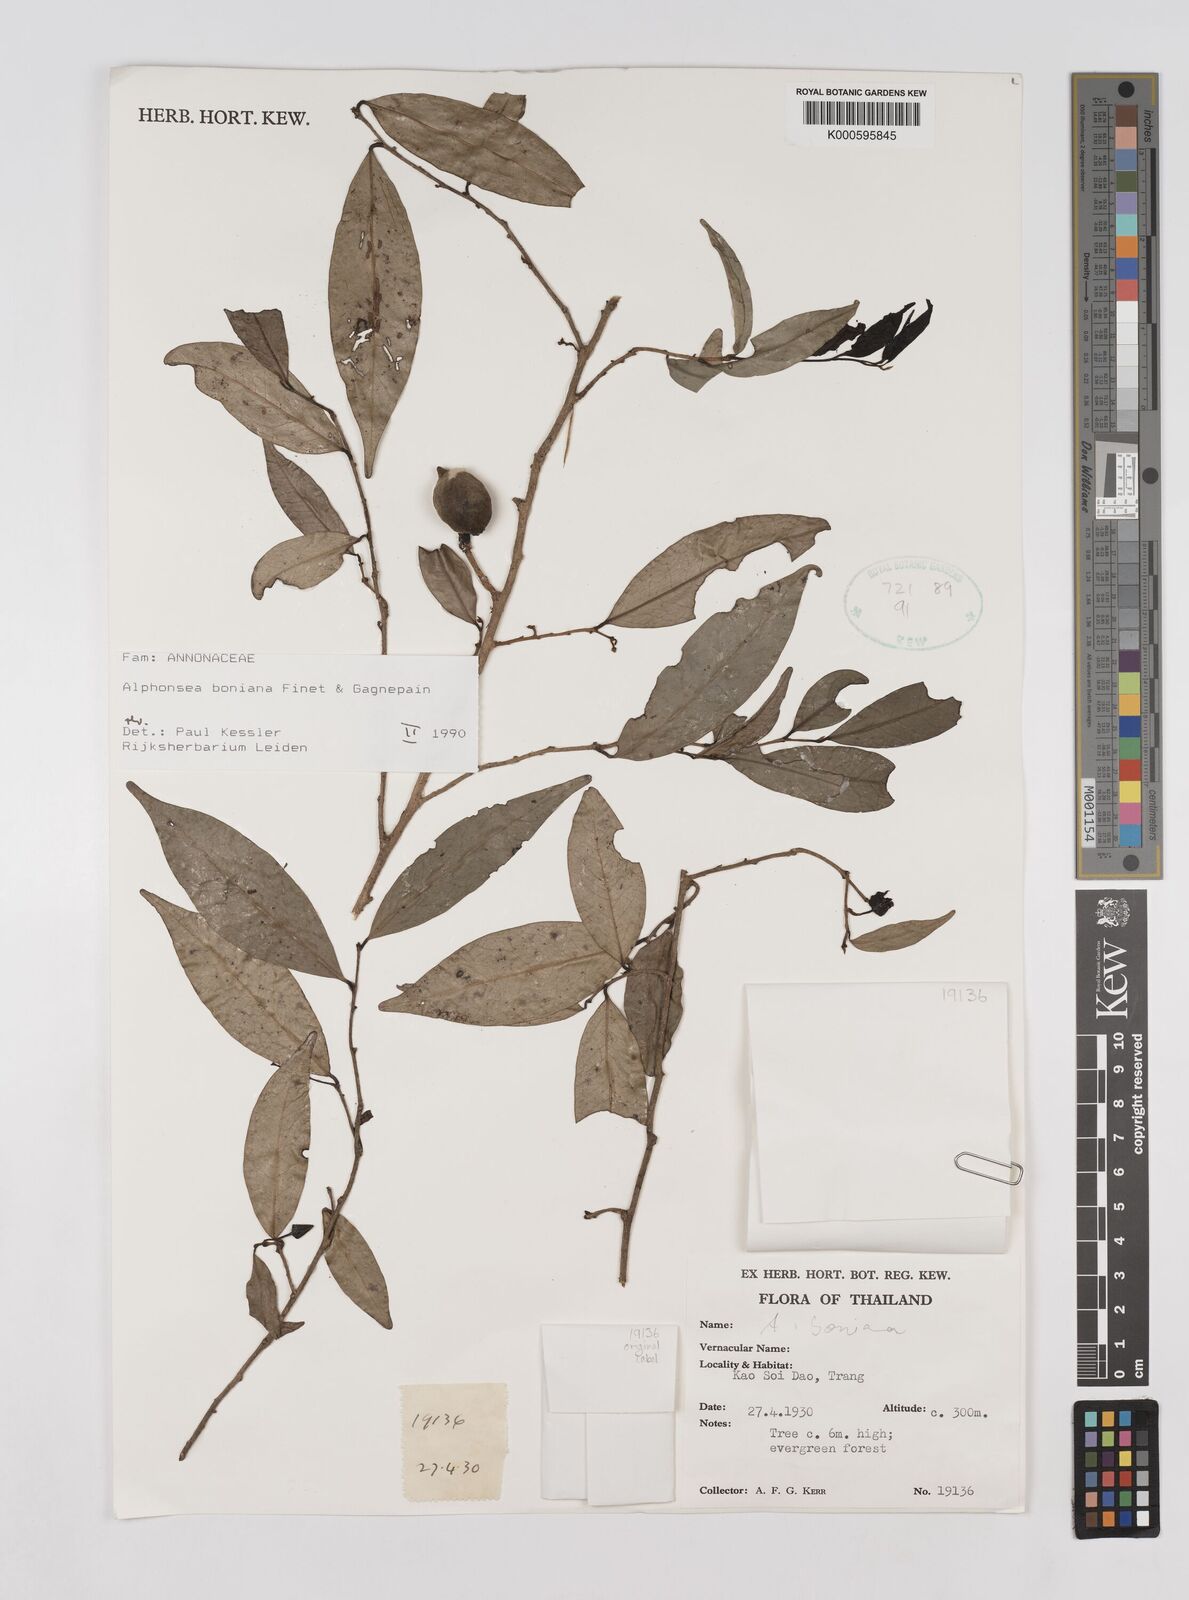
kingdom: Plantae
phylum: Tracheophyta
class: Magnoliopsida
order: Magnoliales
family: Annonaceae
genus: Alphonsea
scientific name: Alphonsea boniana
